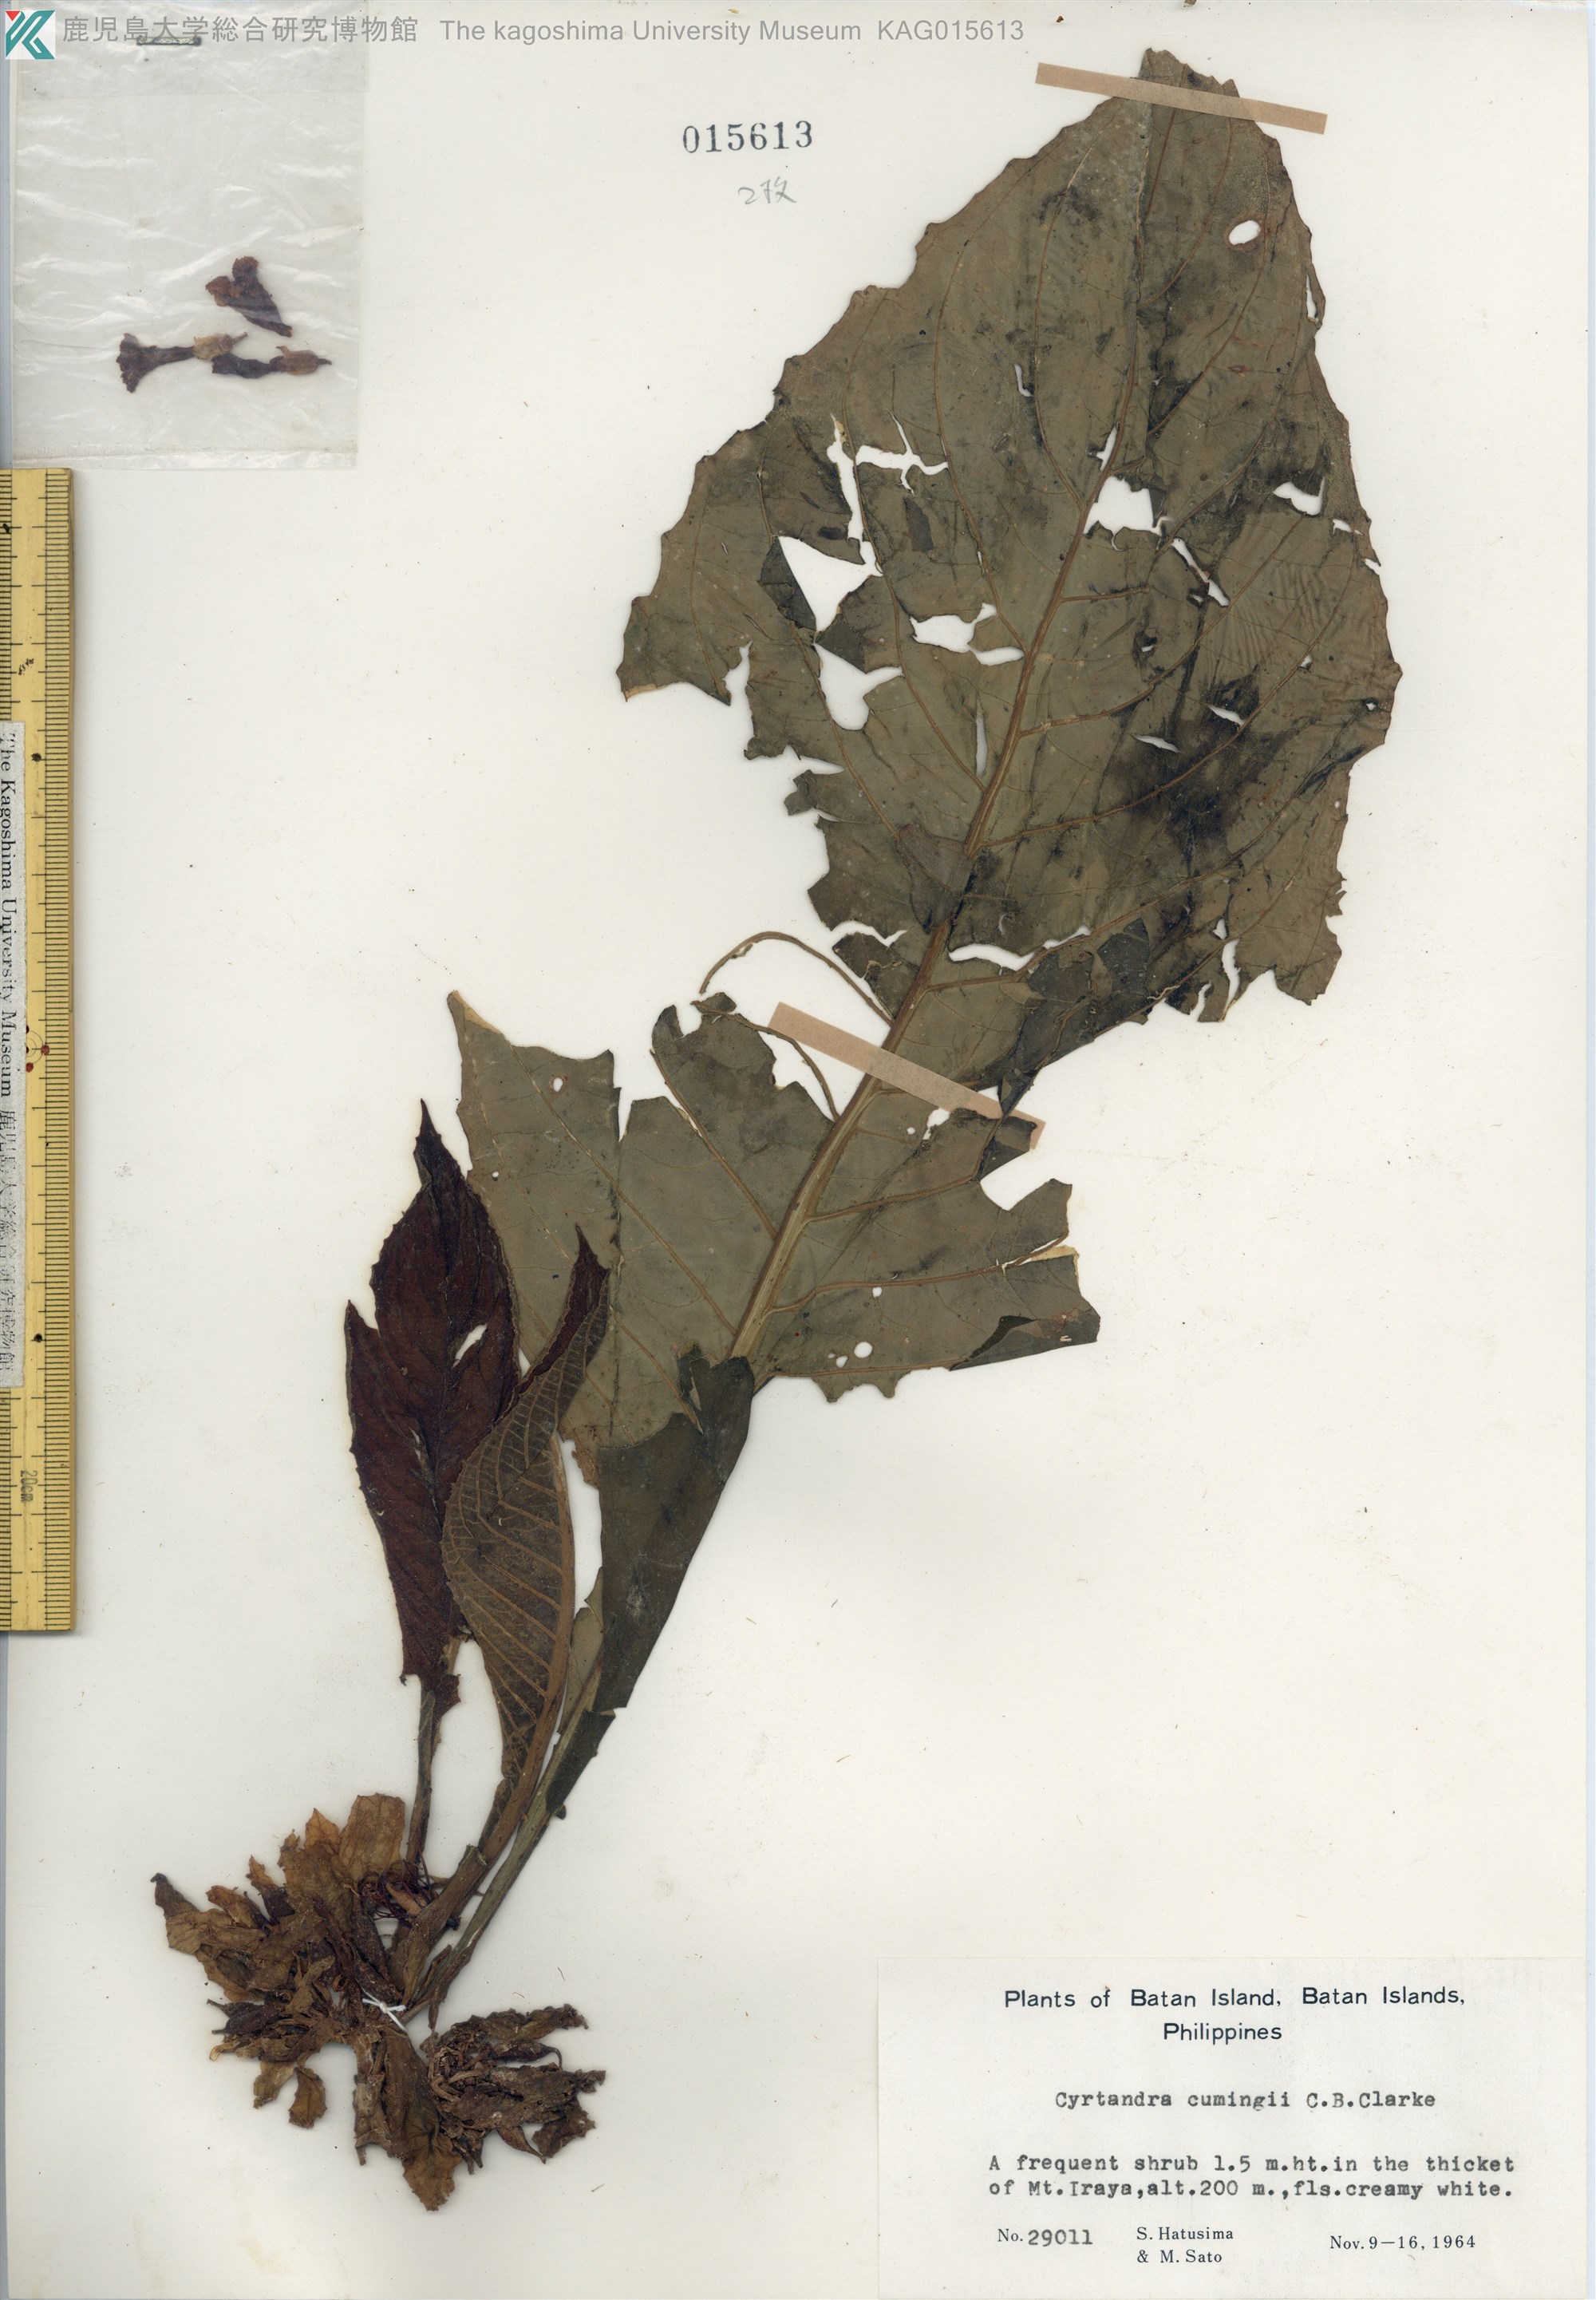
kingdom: Plantae
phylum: Tracheophyta
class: Magnoliopsida
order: Lamiales
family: Gesneriaceae
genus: Cyrtandra
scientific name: Cyrtandra cumingii
